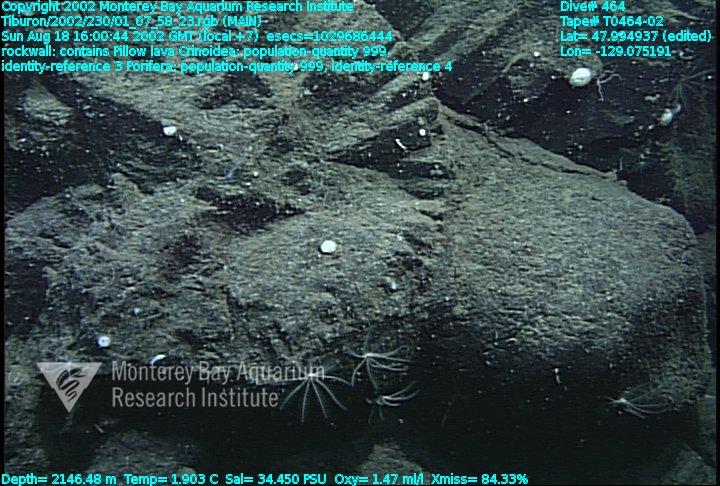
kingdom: Animalia
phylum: Porifera
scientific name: Porifera
